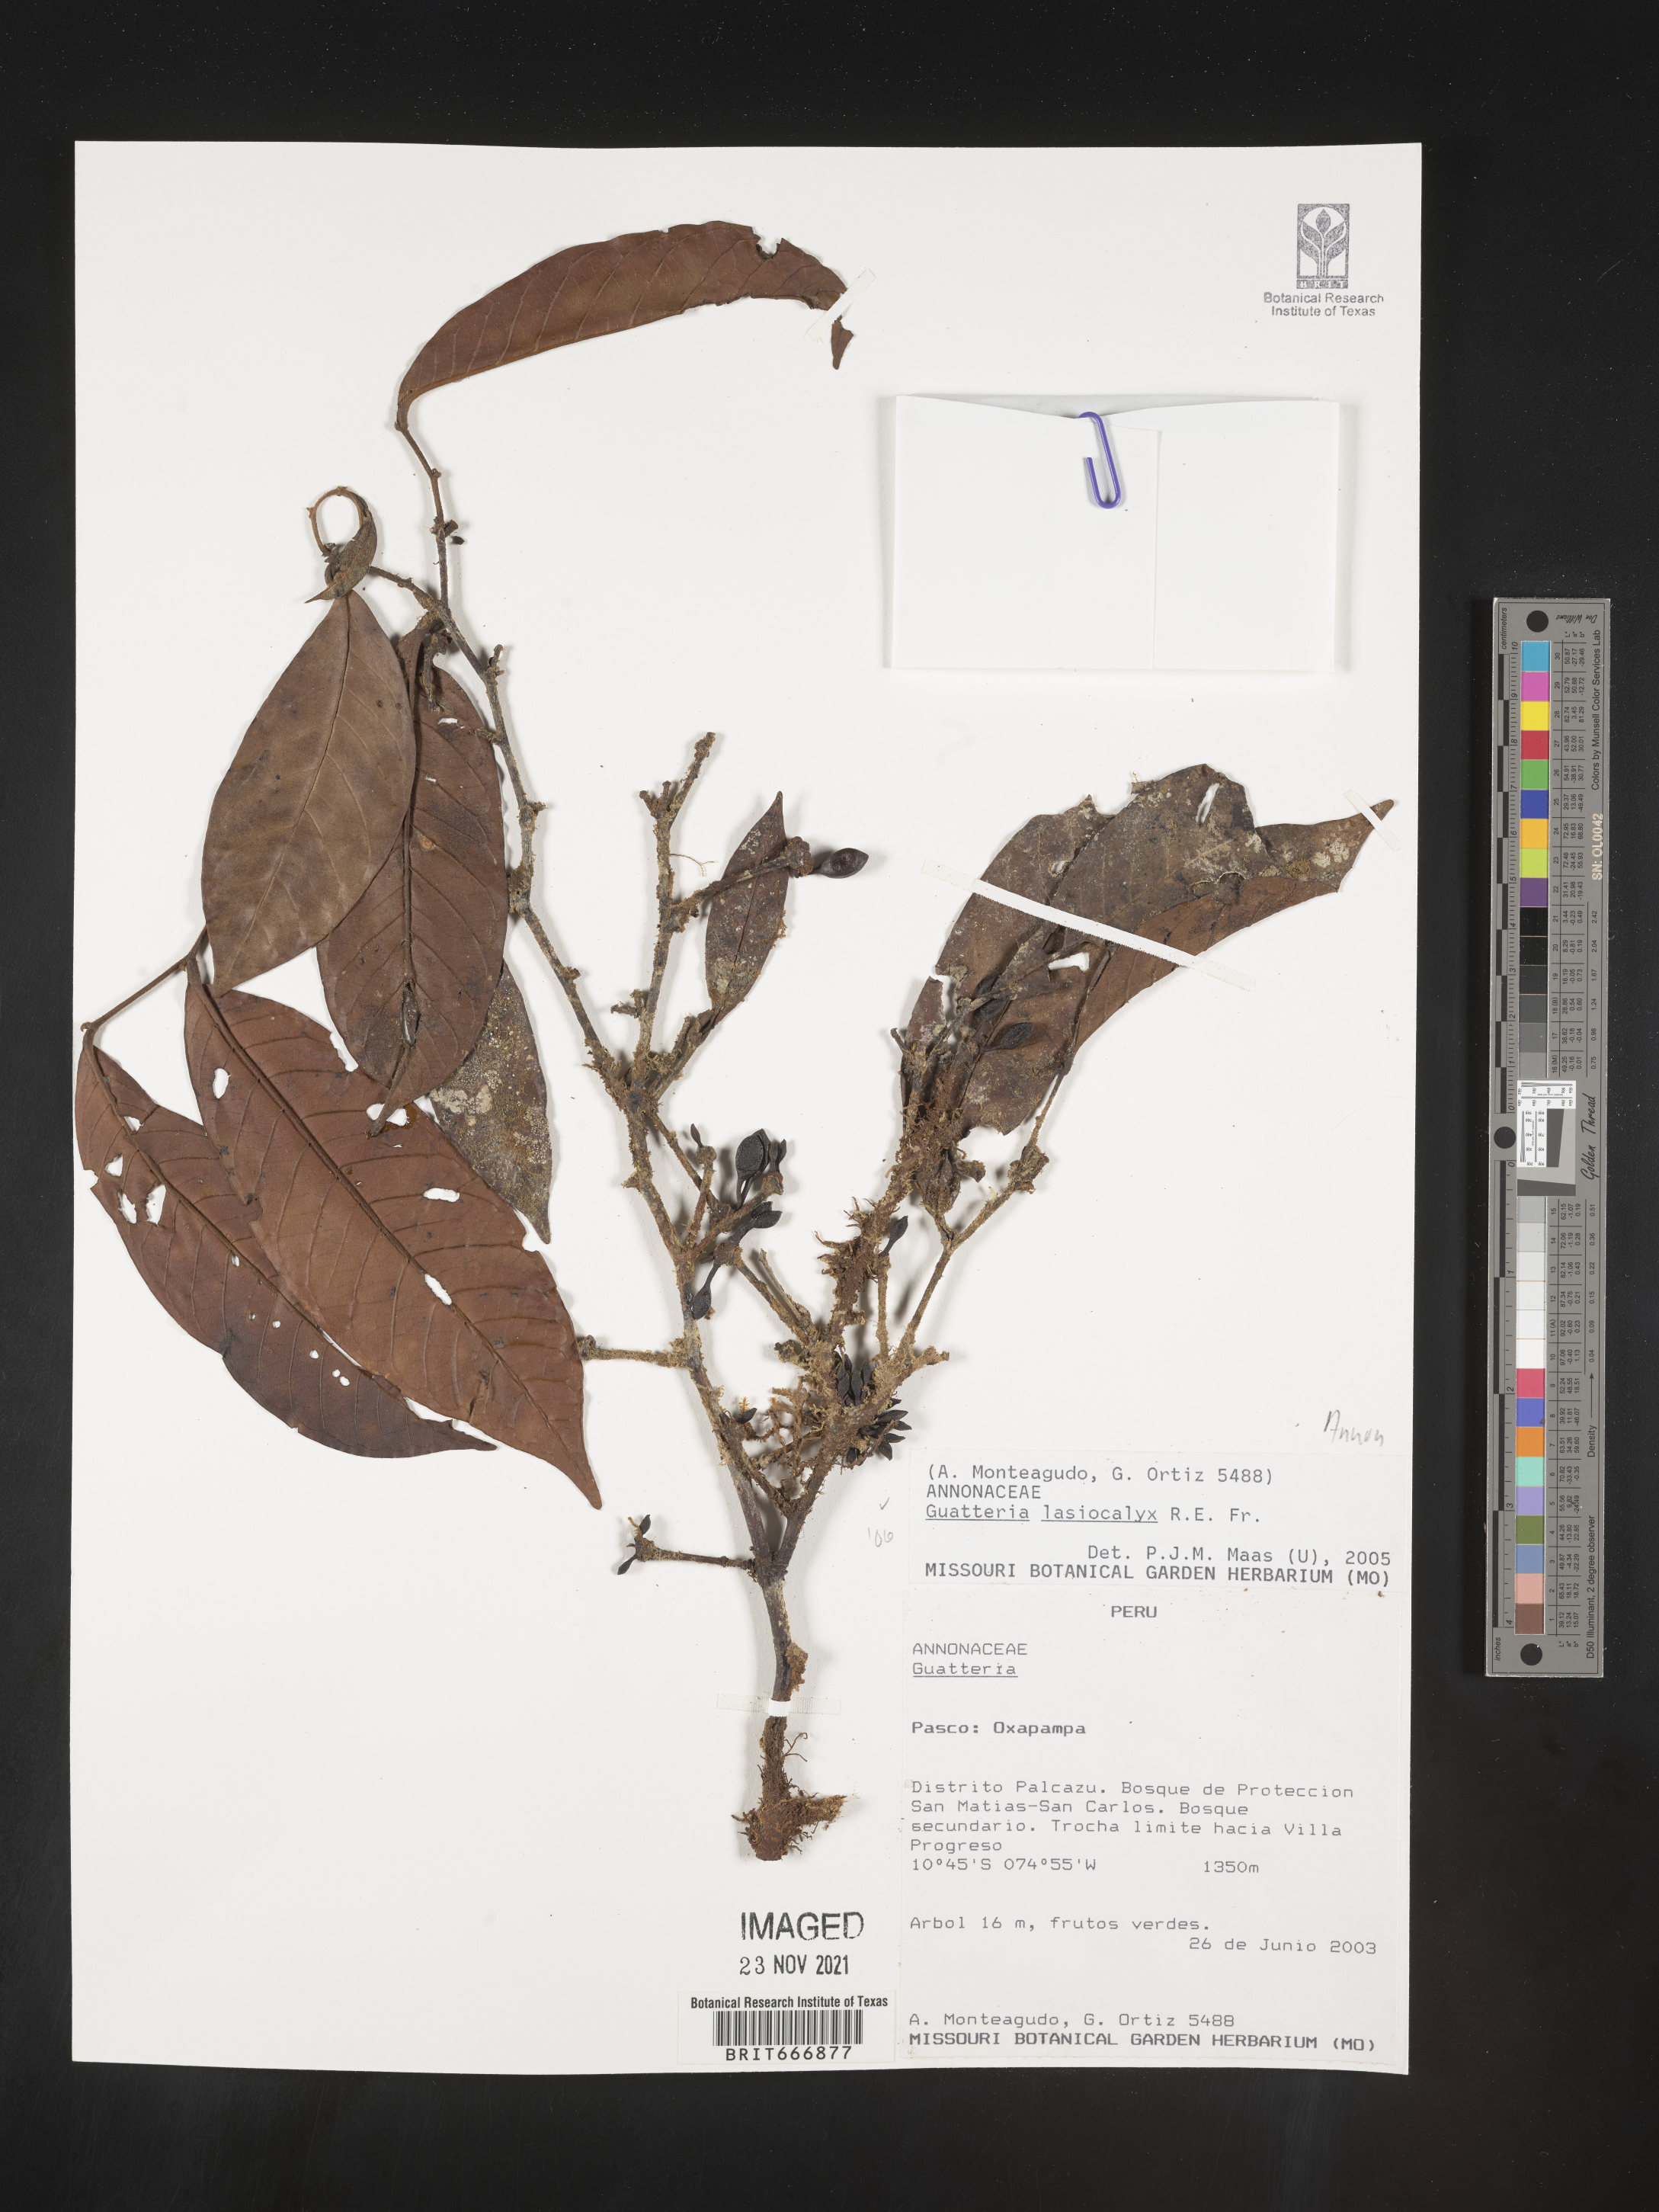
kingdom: Plantae
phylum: Tracheophyta
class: Magnoliopsida
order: Magnoliales
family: Annonaceae
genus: Guatteria
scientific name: Guatteria
